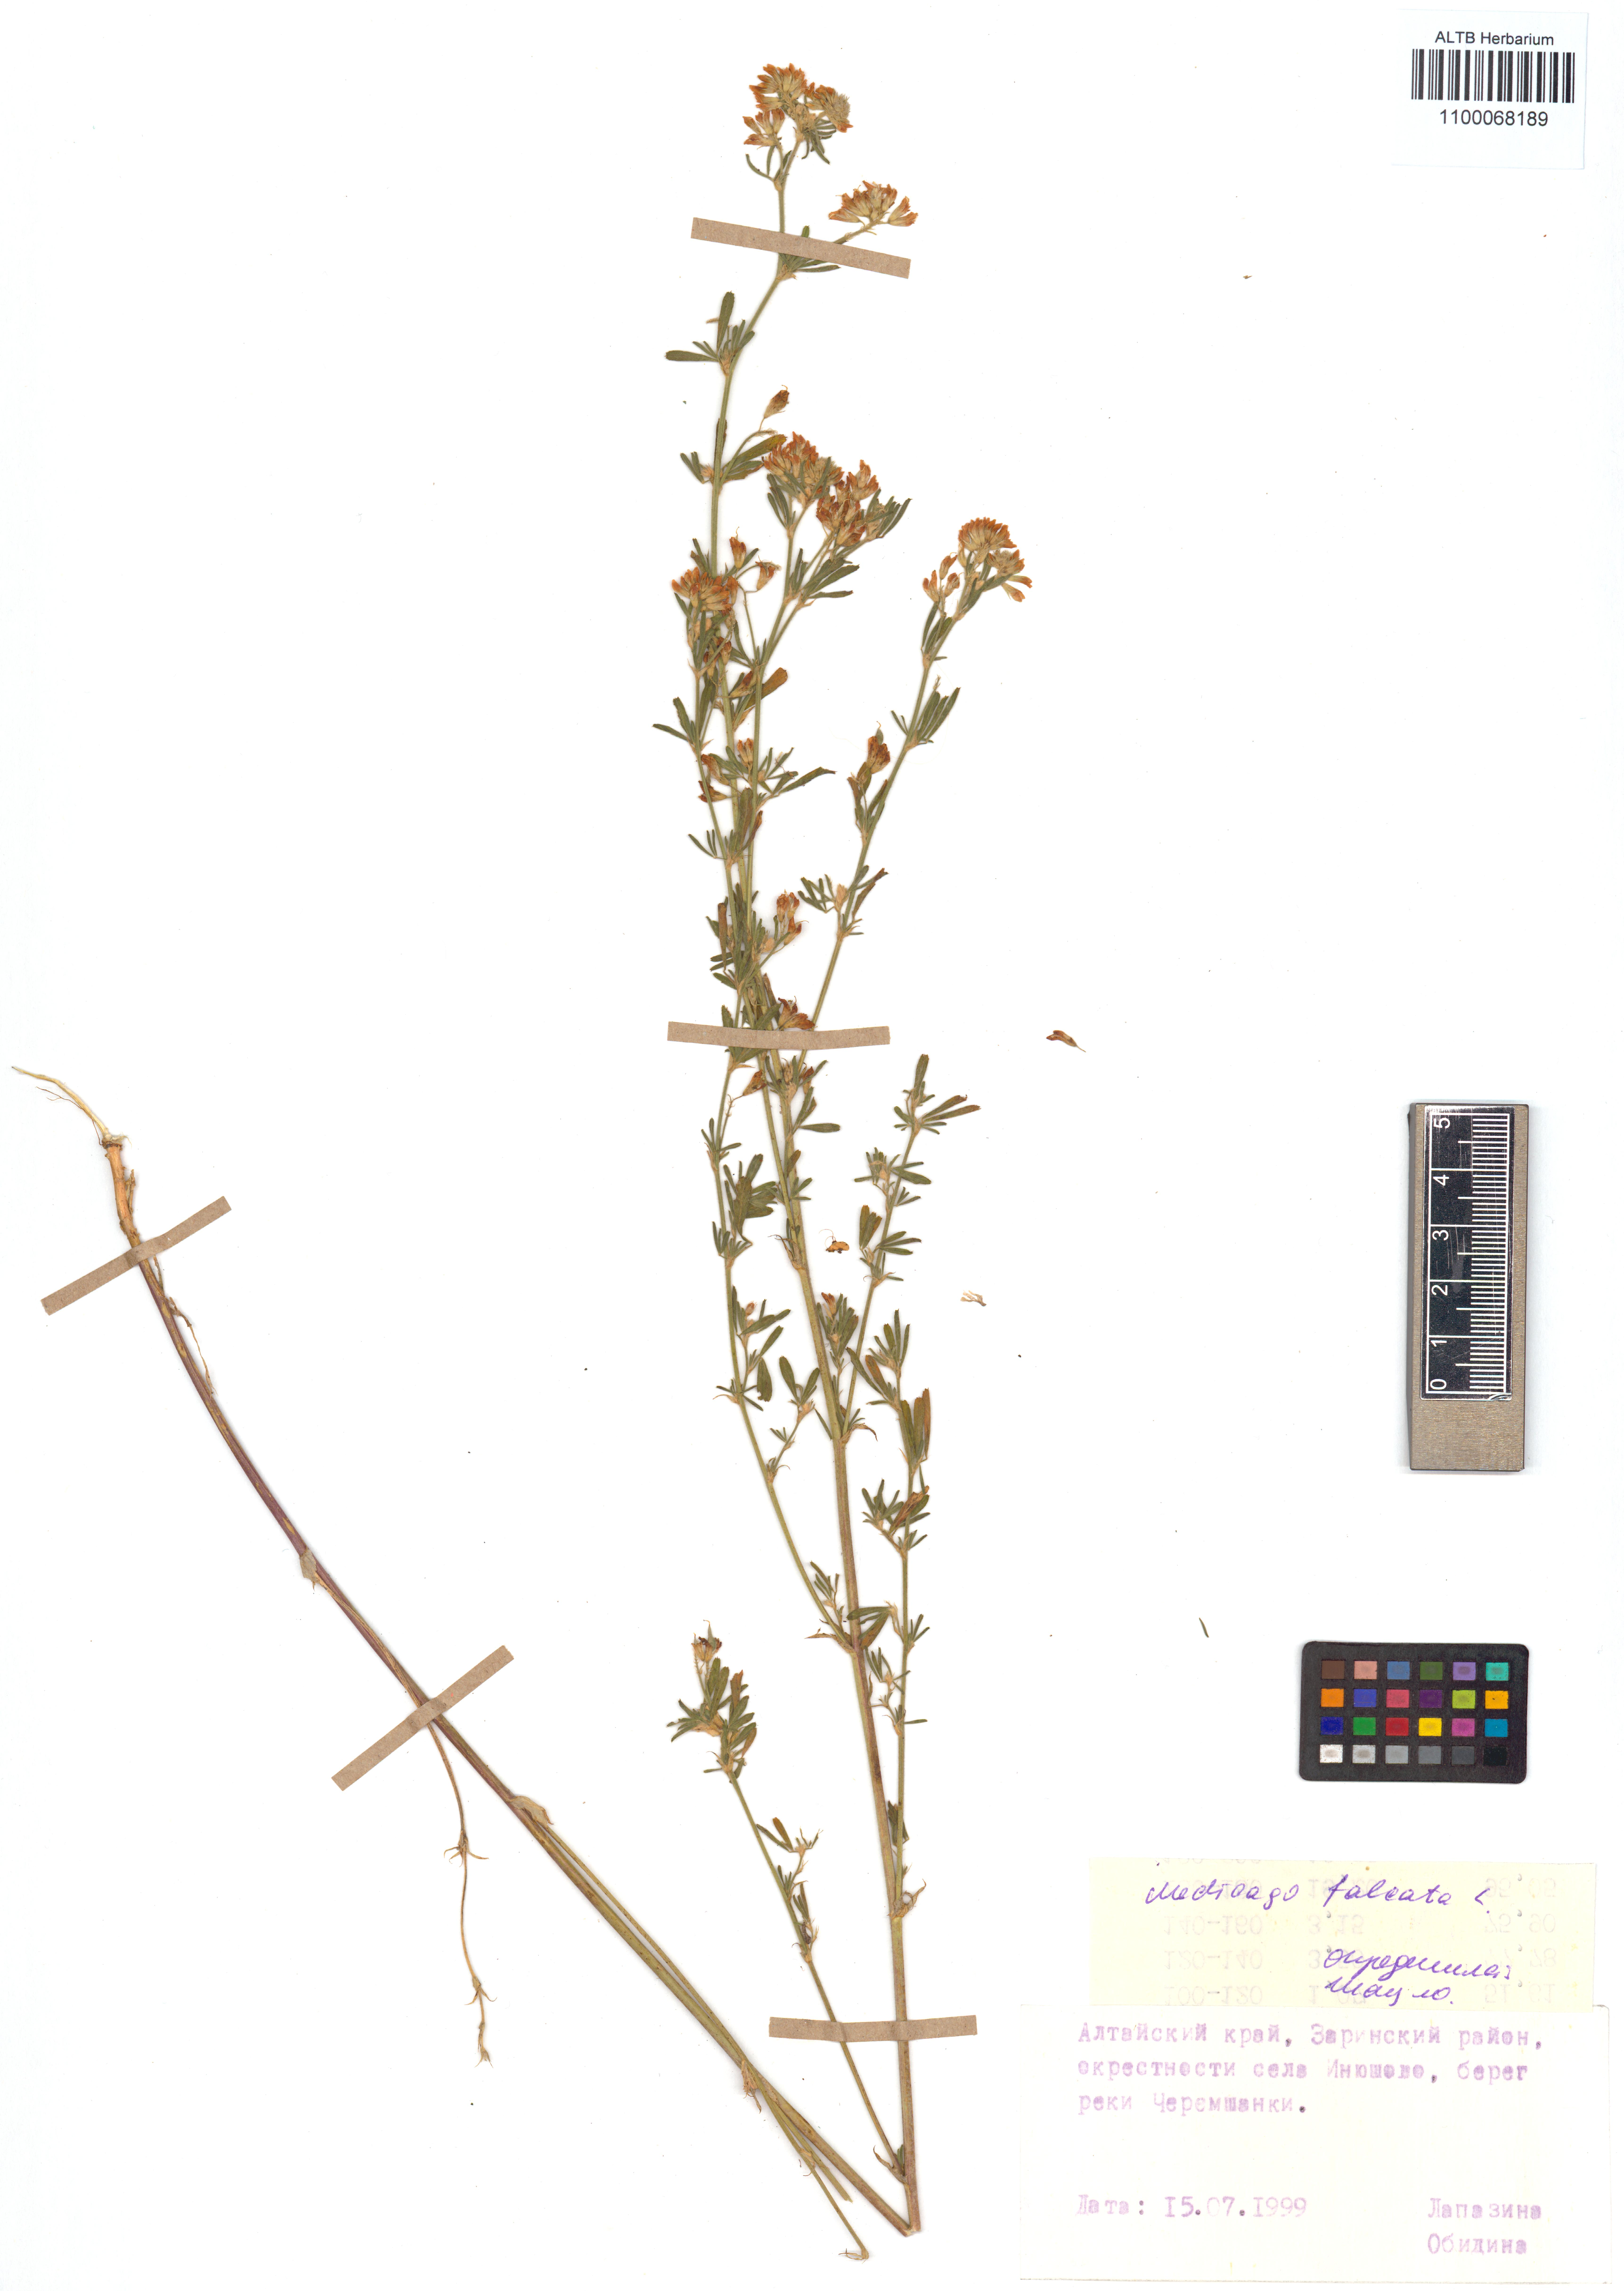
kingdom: Plantae
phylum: Tracheophyta
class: Magnoliopsida
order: Fabales
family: Fabaceae
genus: Medicago
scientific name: Medicago falcata
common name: Sickle medick
